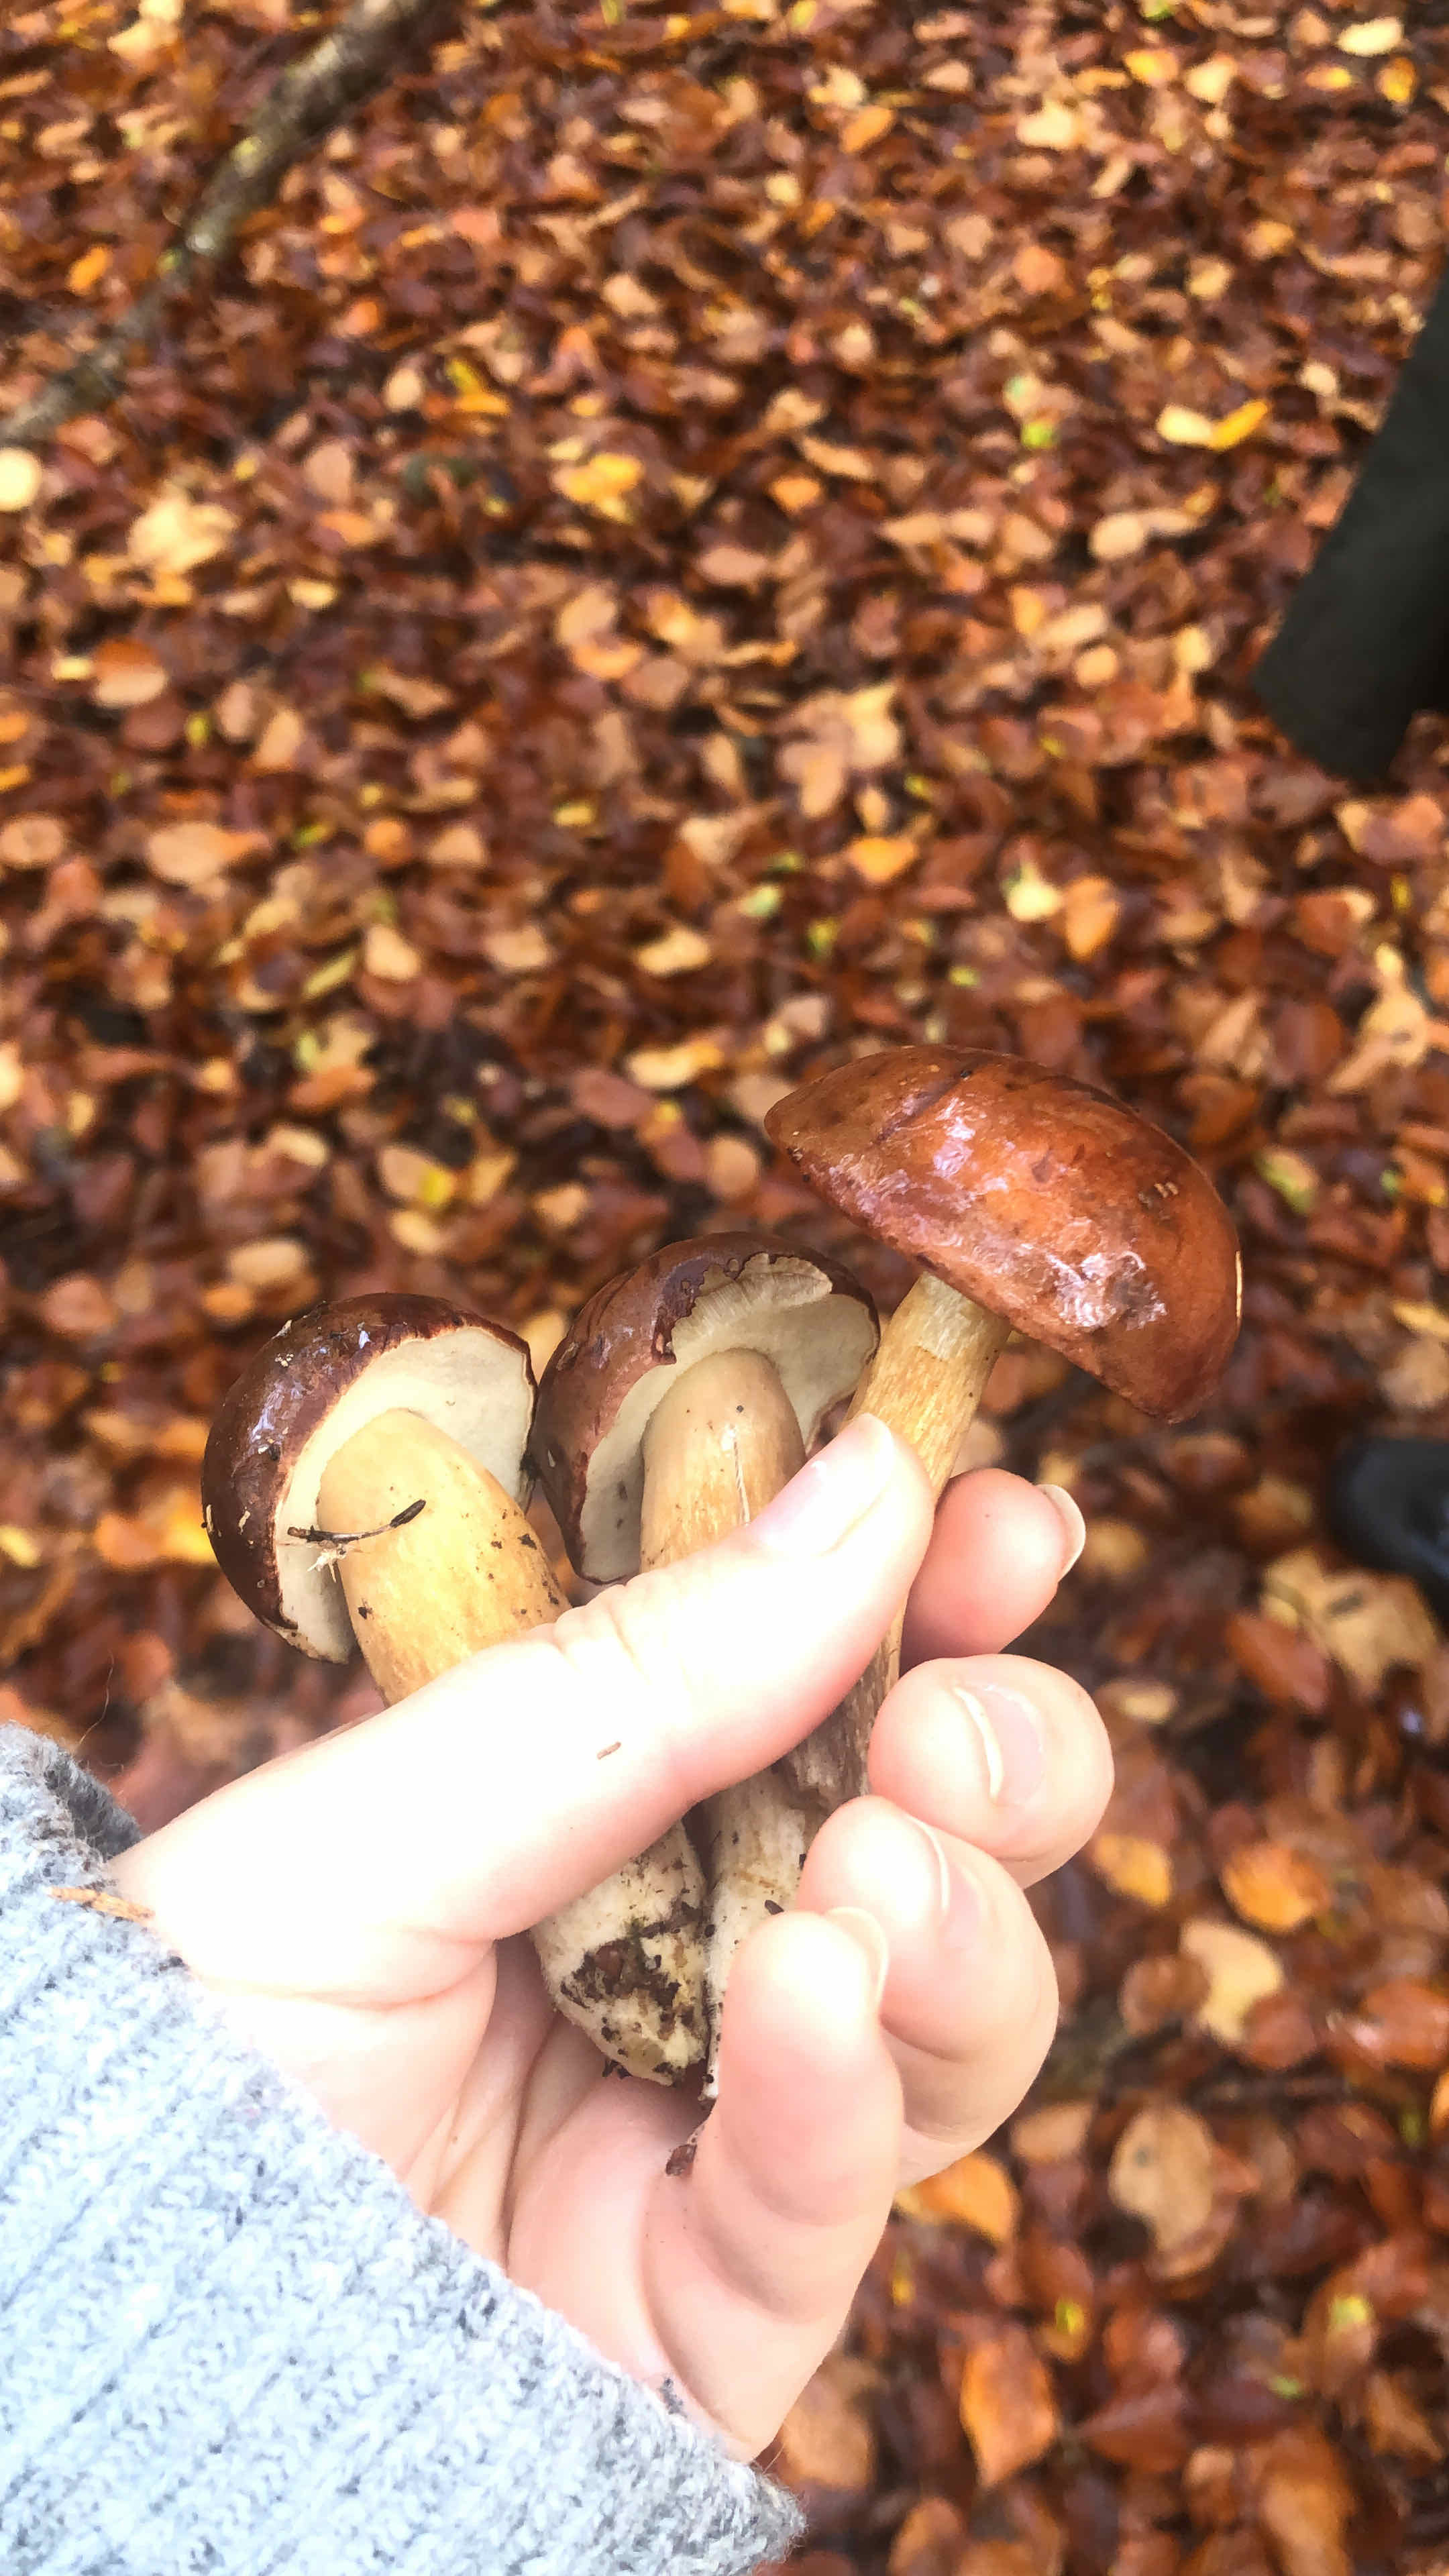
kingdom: Fungi
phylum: Basidiomycota
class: Agaricomycetes
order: Boletales
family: Boletaceae
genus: Imleria
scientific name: Imleria badia
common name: brunstokket rørhat
